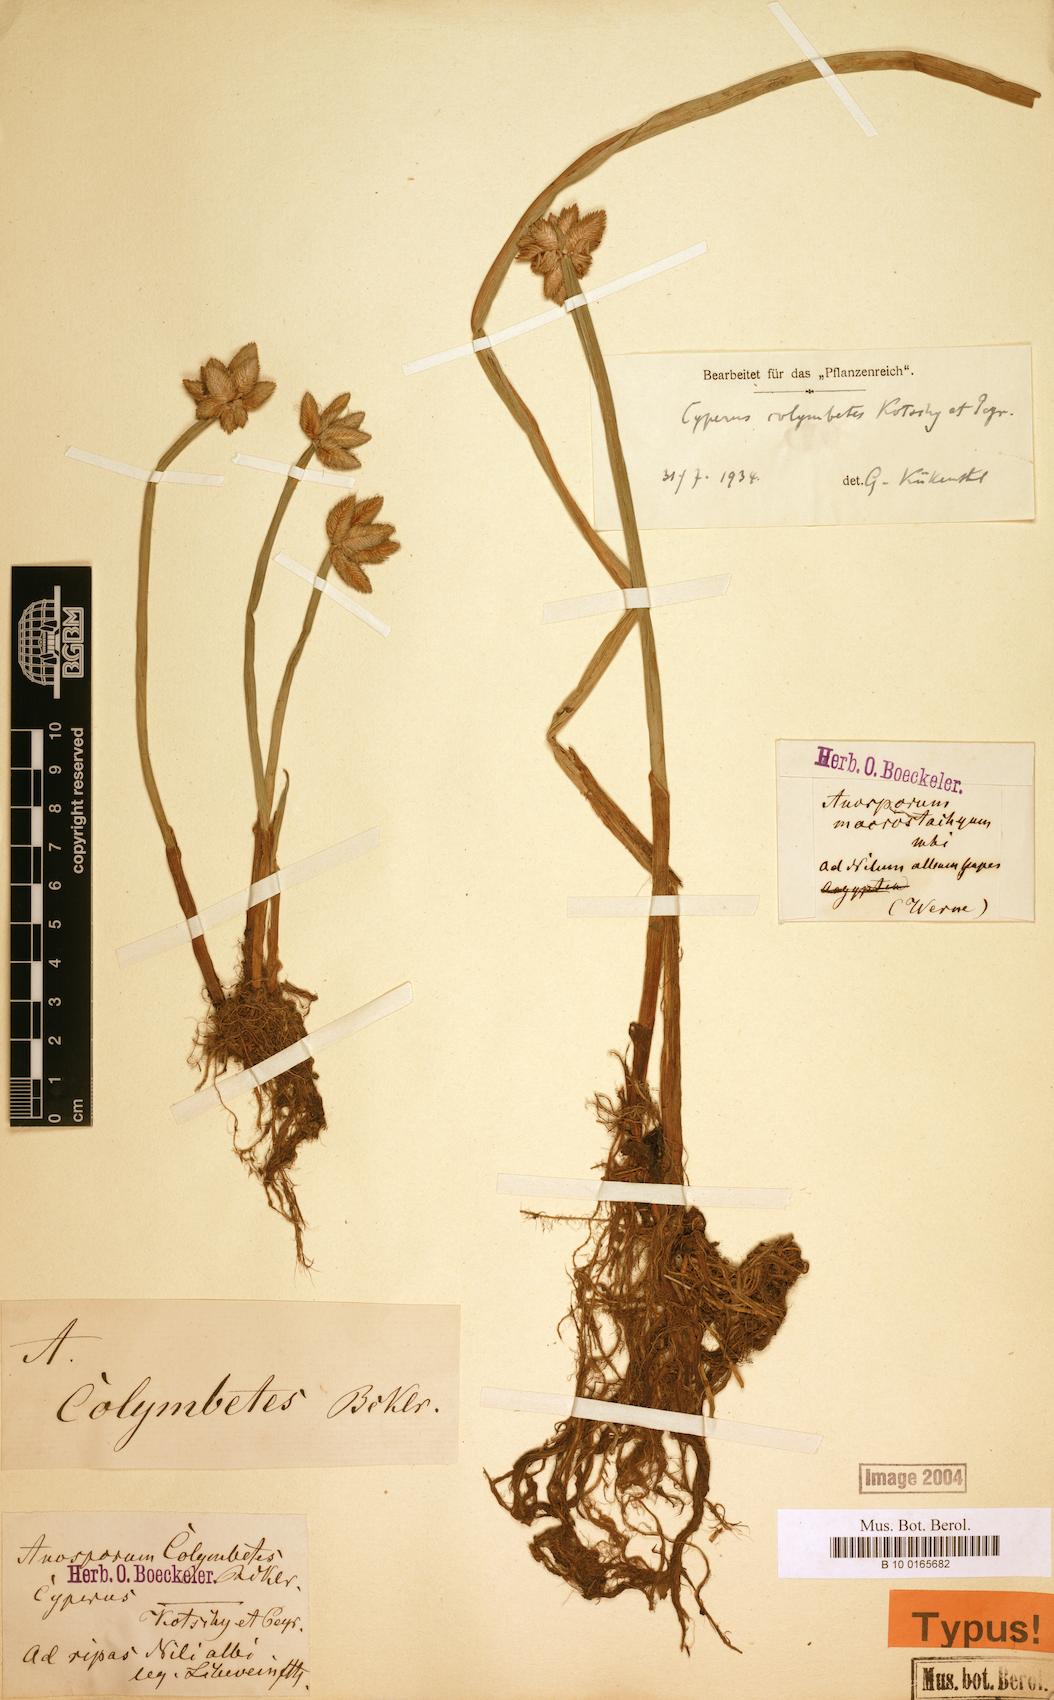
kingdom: Plantae
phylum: Tracheophyta
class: Liliopsida
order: Poales
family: Cyperaceae
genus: Cyperus
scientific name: Cyperus colymbetes
